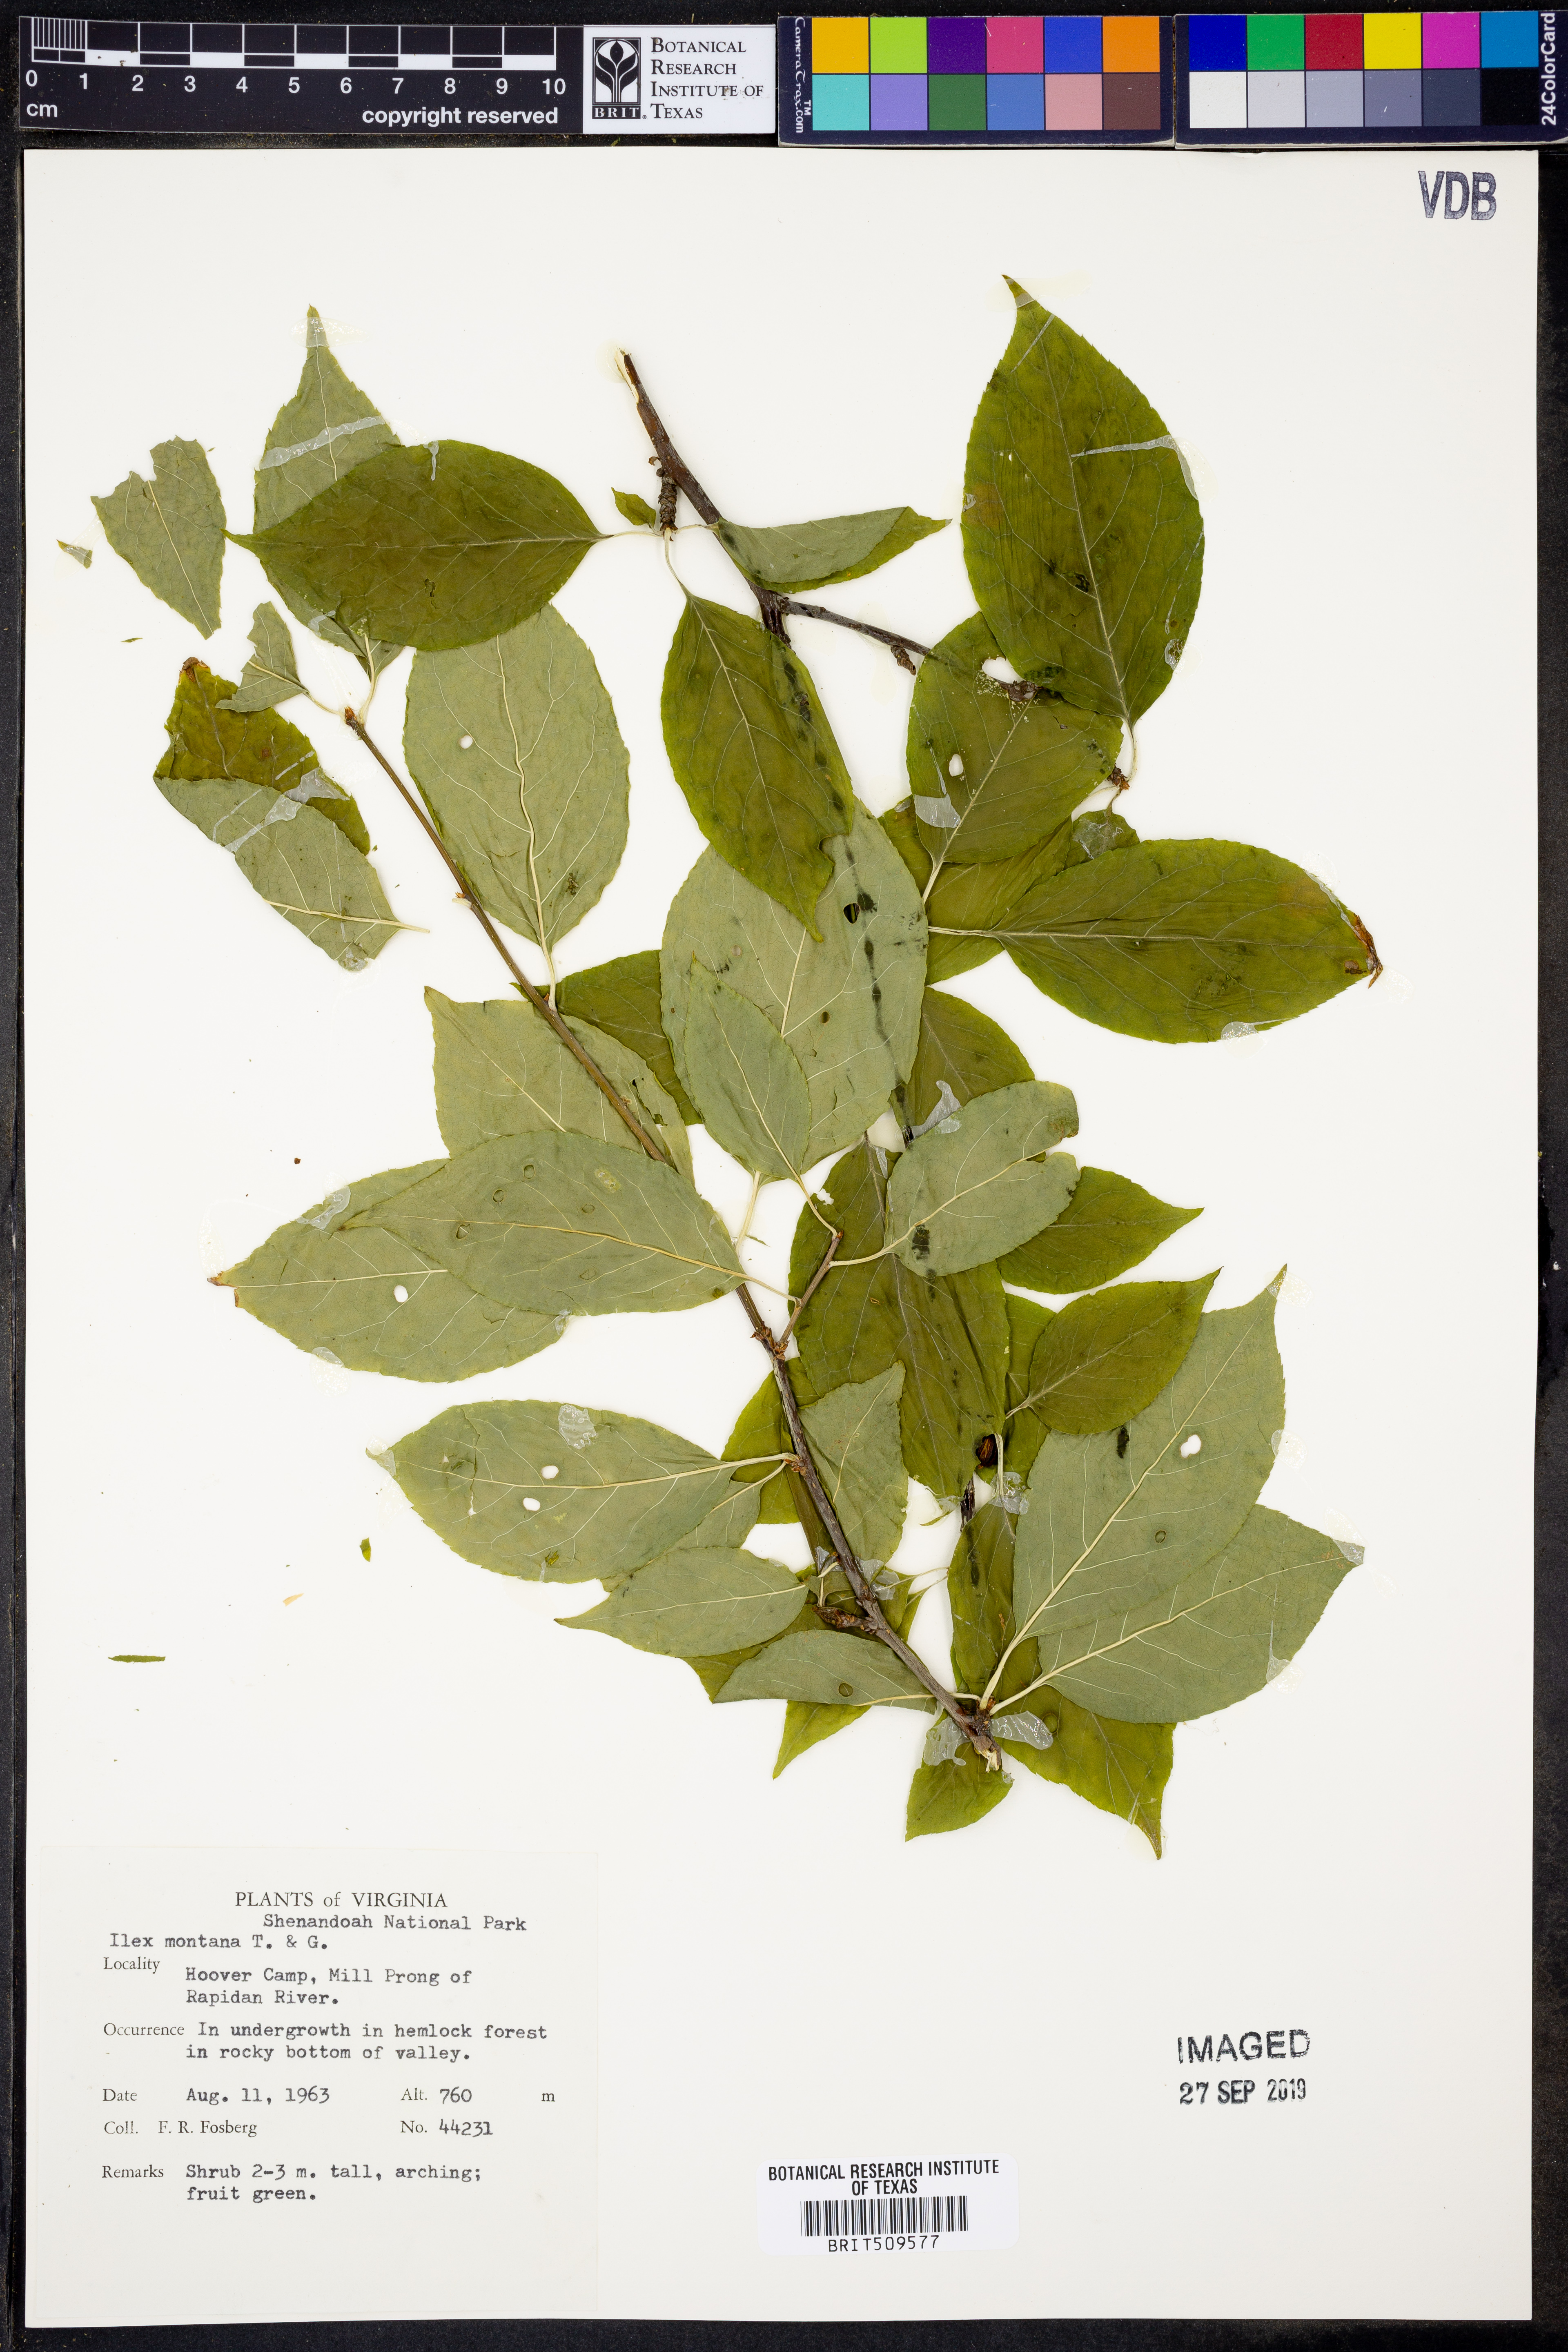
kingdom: Plantae
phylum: Tracheophyta
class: Magnoliopsida
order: Aquifoliales
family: Aquifoliaceae
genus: Ilex
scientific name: Ilex montana
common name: Mountain winterberry
